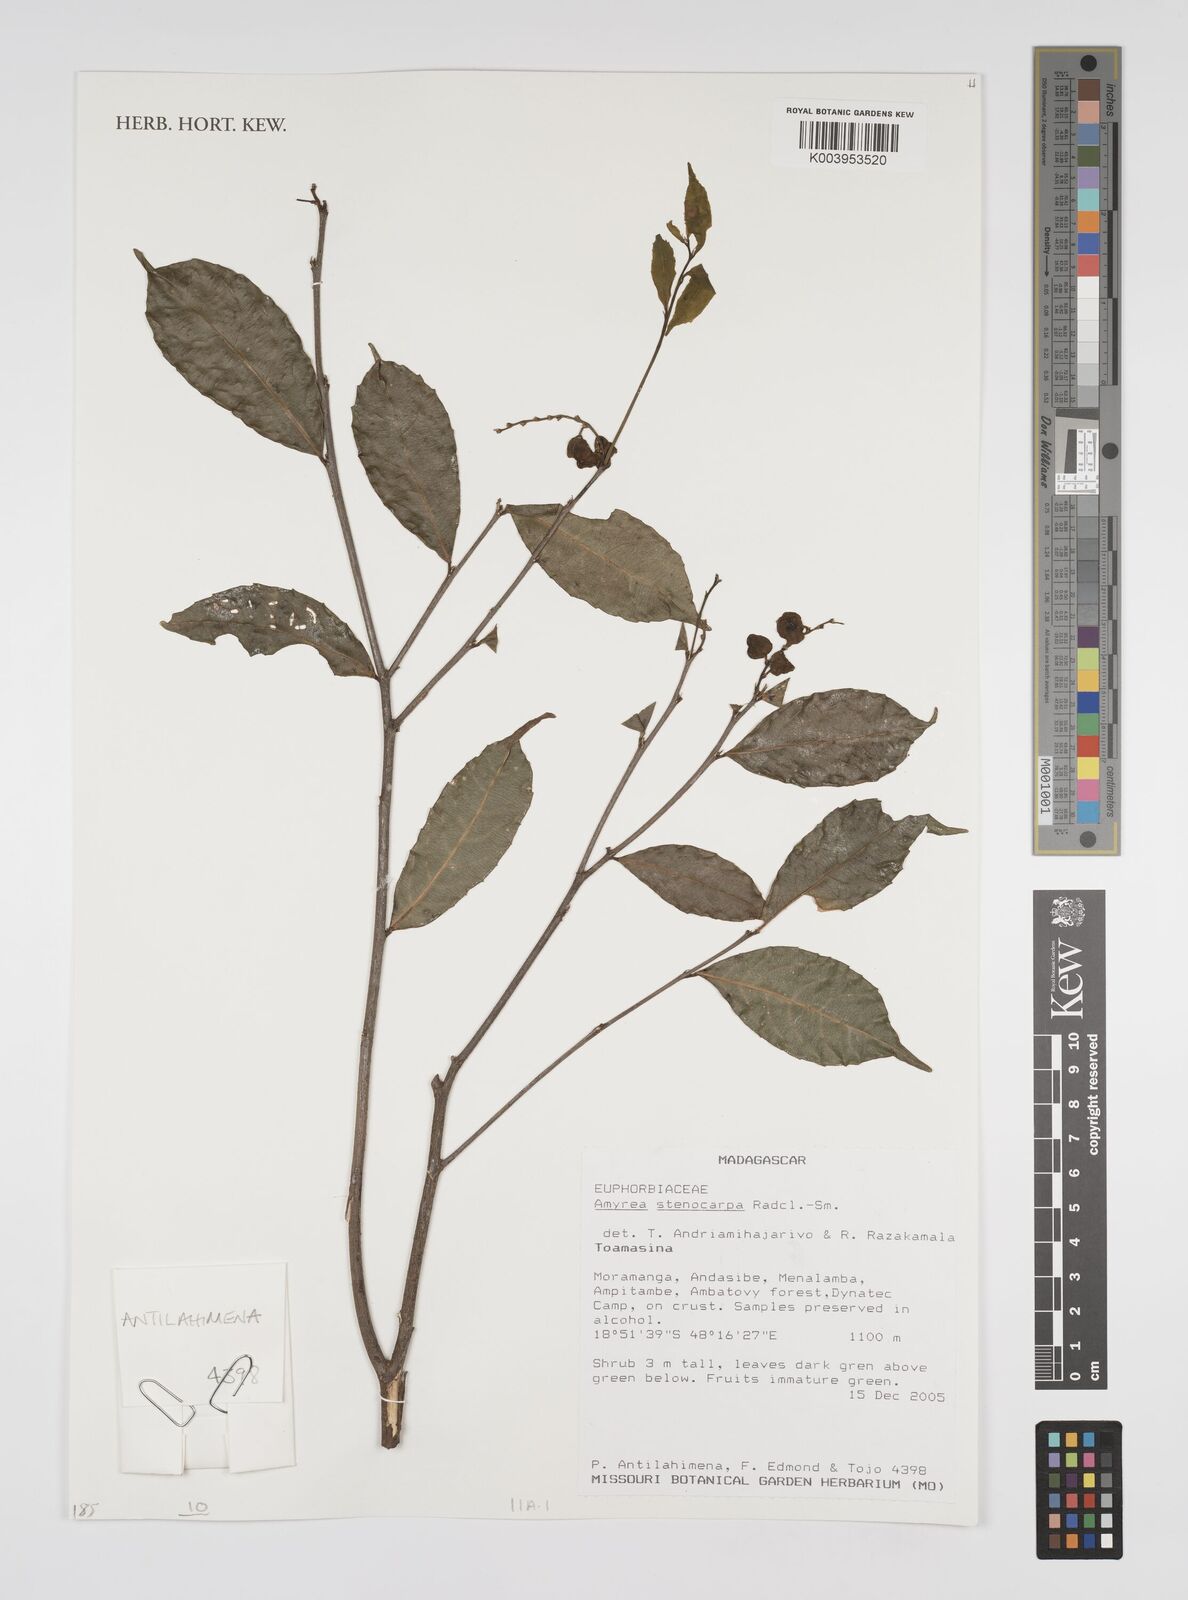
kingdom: Plantae
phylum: Tracheophyta
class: Magnoliopsida
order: Malpighiales
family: Euphorbiaceae
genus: Amyrea
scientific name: Amyrea stenocarpa
